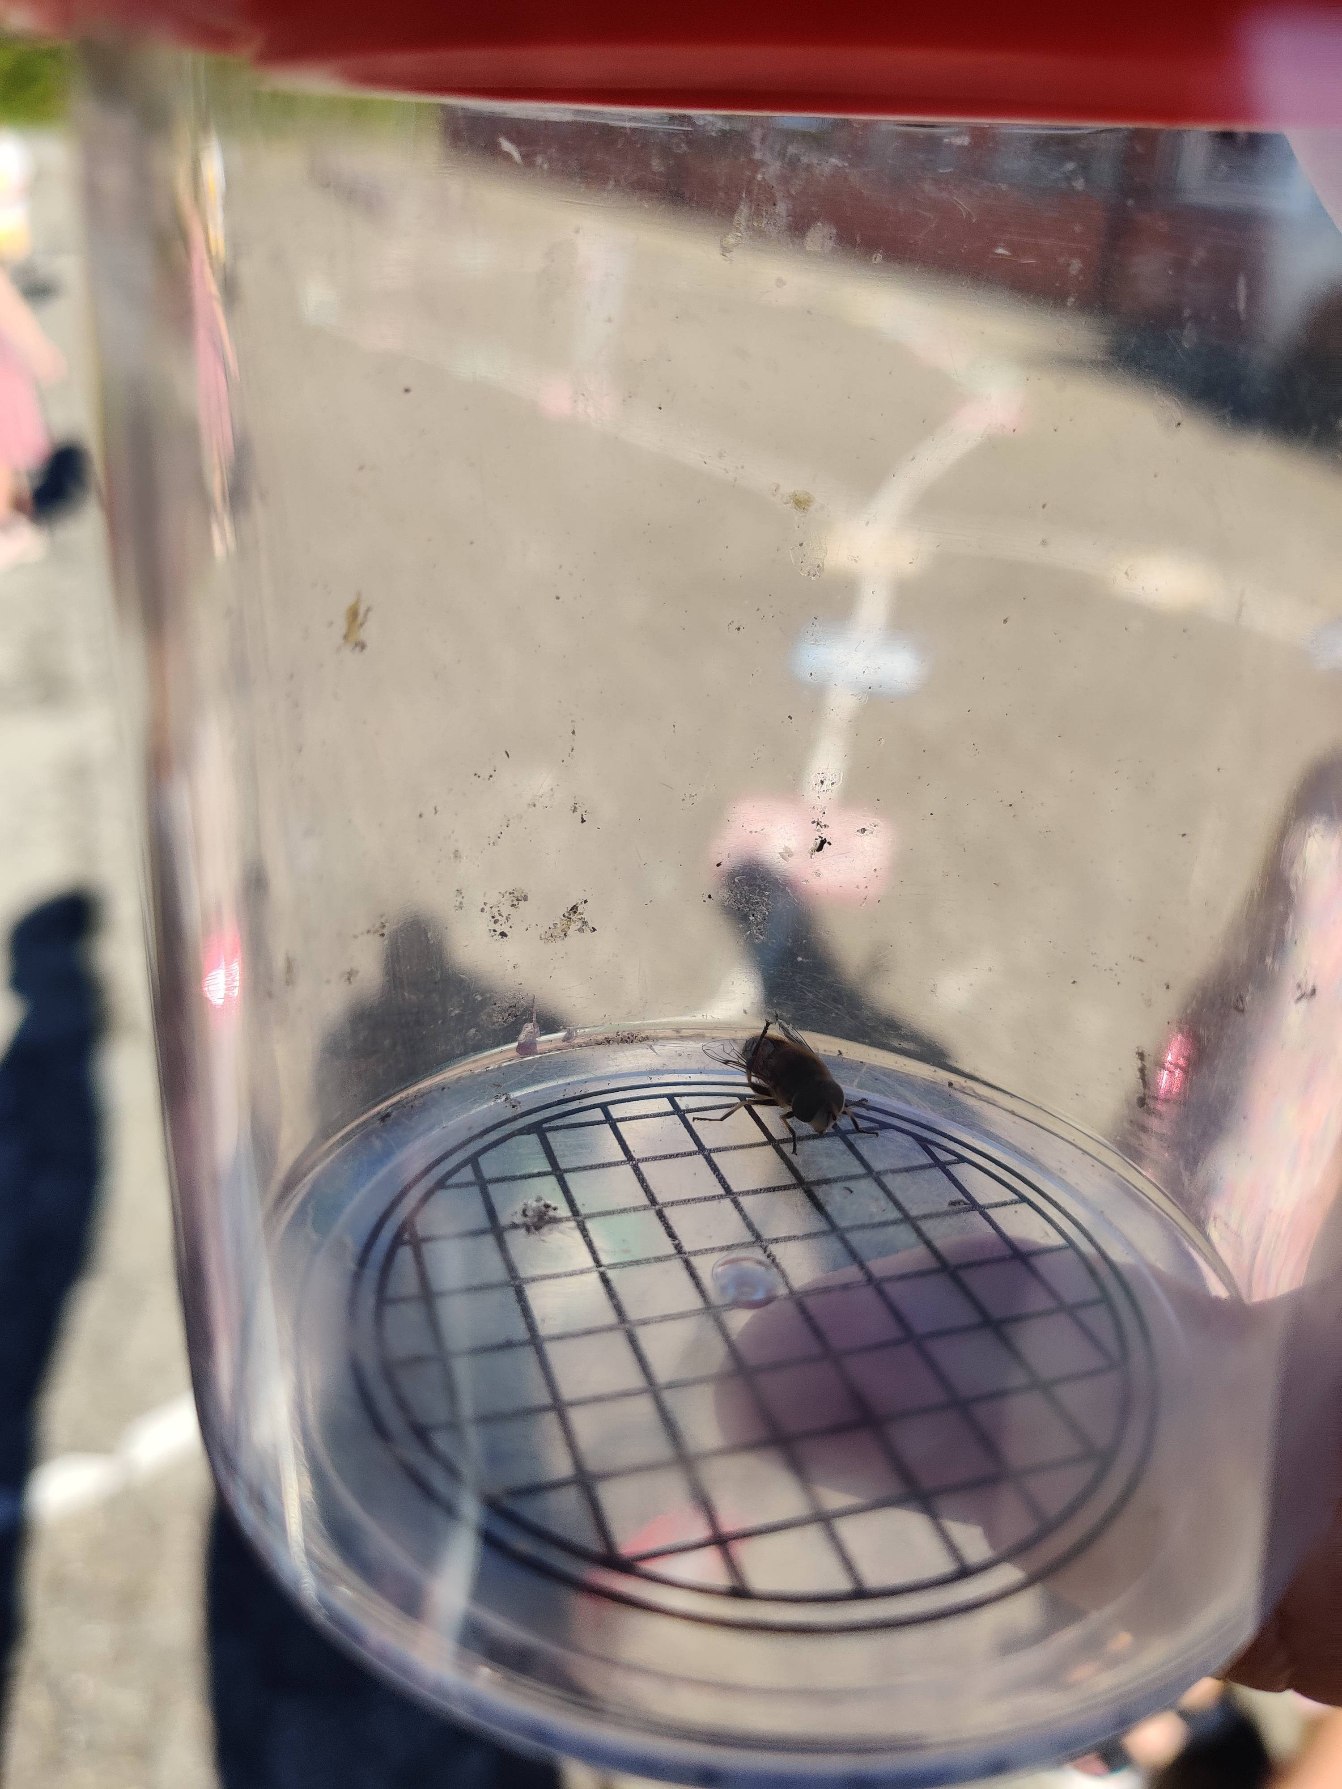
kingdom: Animalia
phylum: Arthropoda
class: Insecta
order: Diptera
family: Syrphidae
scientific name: Syrphidae
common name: Svirrefluer
